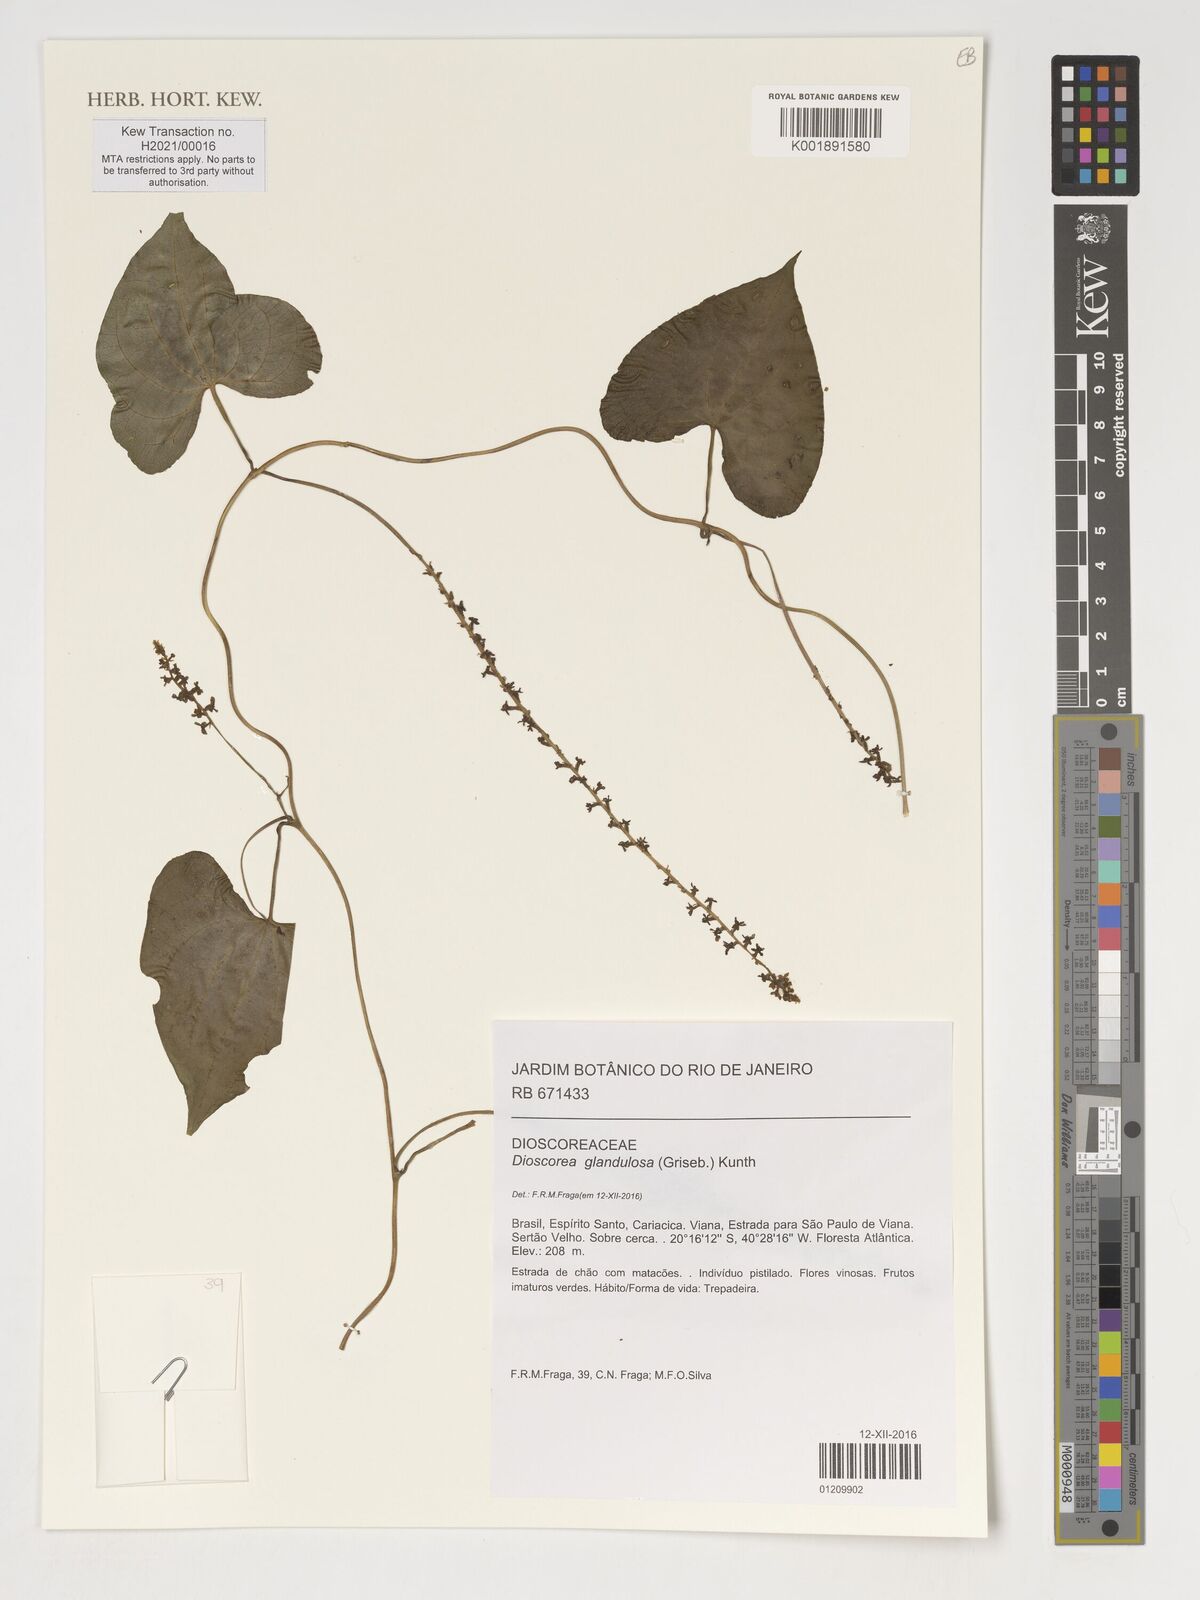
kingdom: Plantae
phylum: Tracheophyta
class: Liliopsida
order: Dioscoreales
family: Dioscoreaceae
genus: Dioscorea
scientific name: Dioscorea glandulosa
